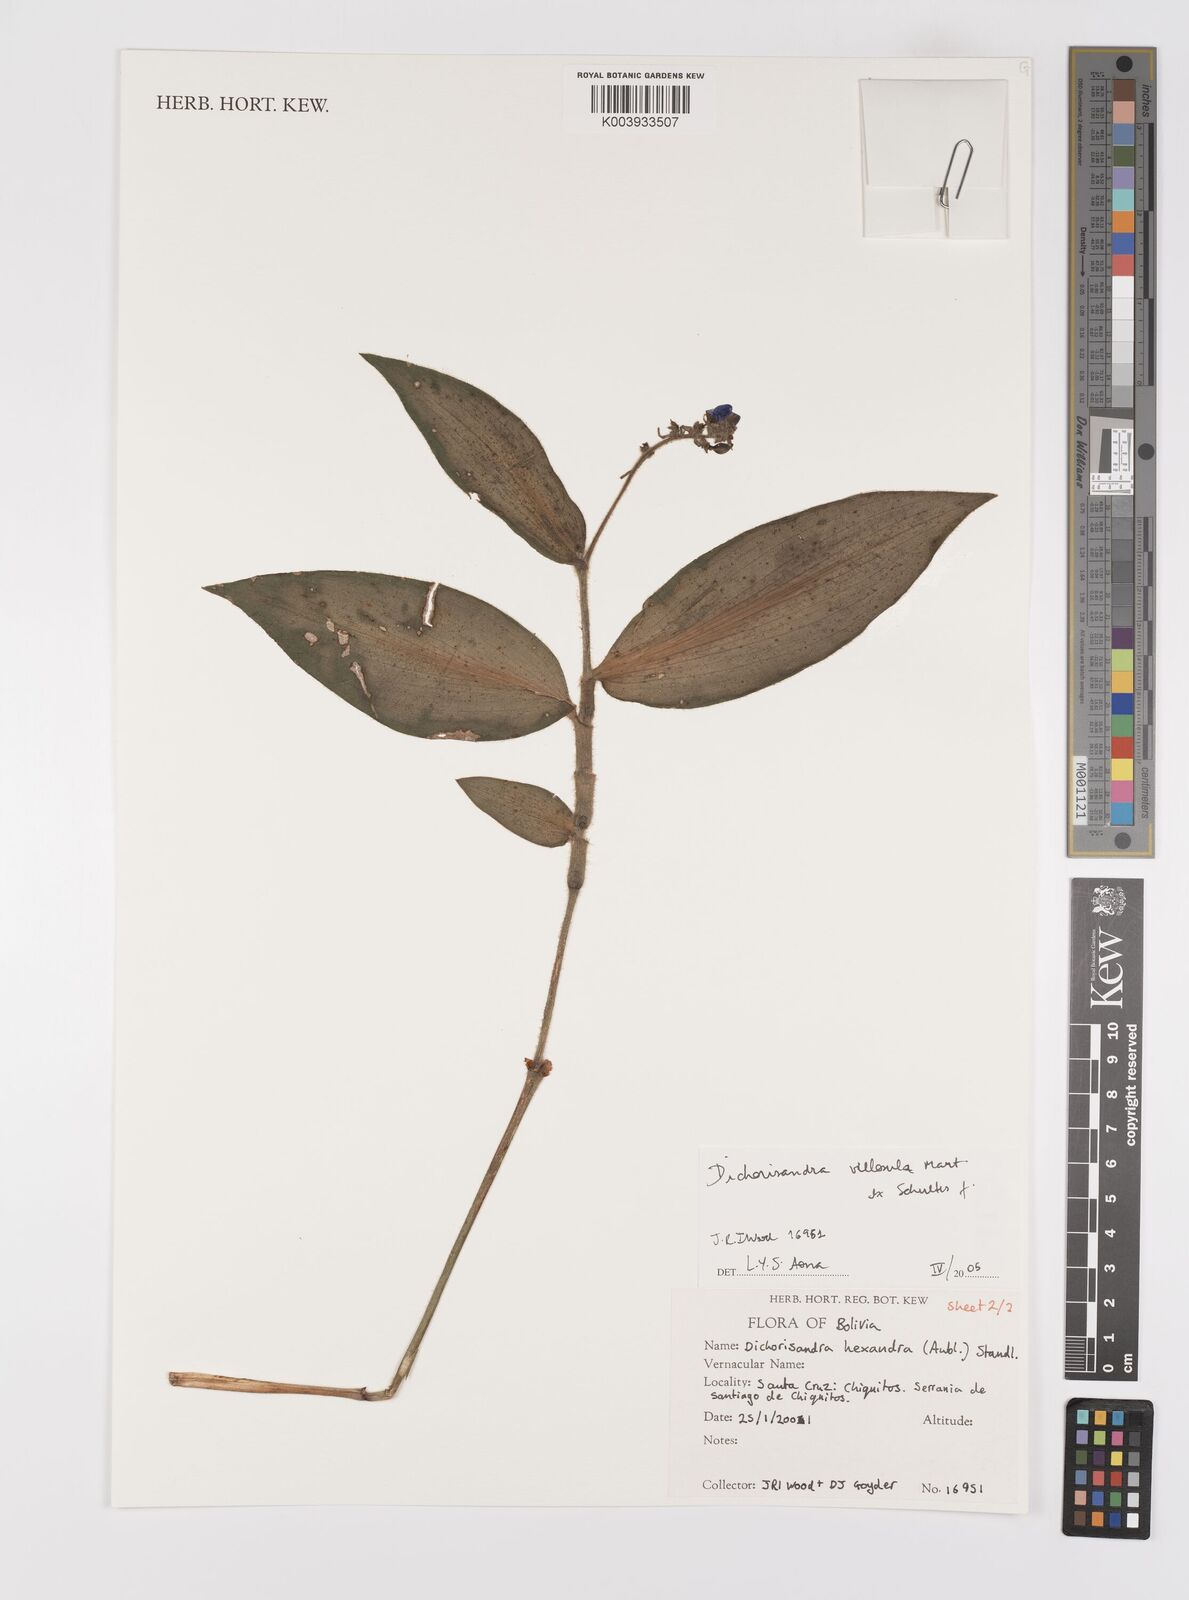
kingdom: Plantae
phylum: Tracheophyta
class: Liliopsida
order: Commelinales
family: Commelinaceae
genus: Dichorisandra
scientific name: Dichorisandra villosula
